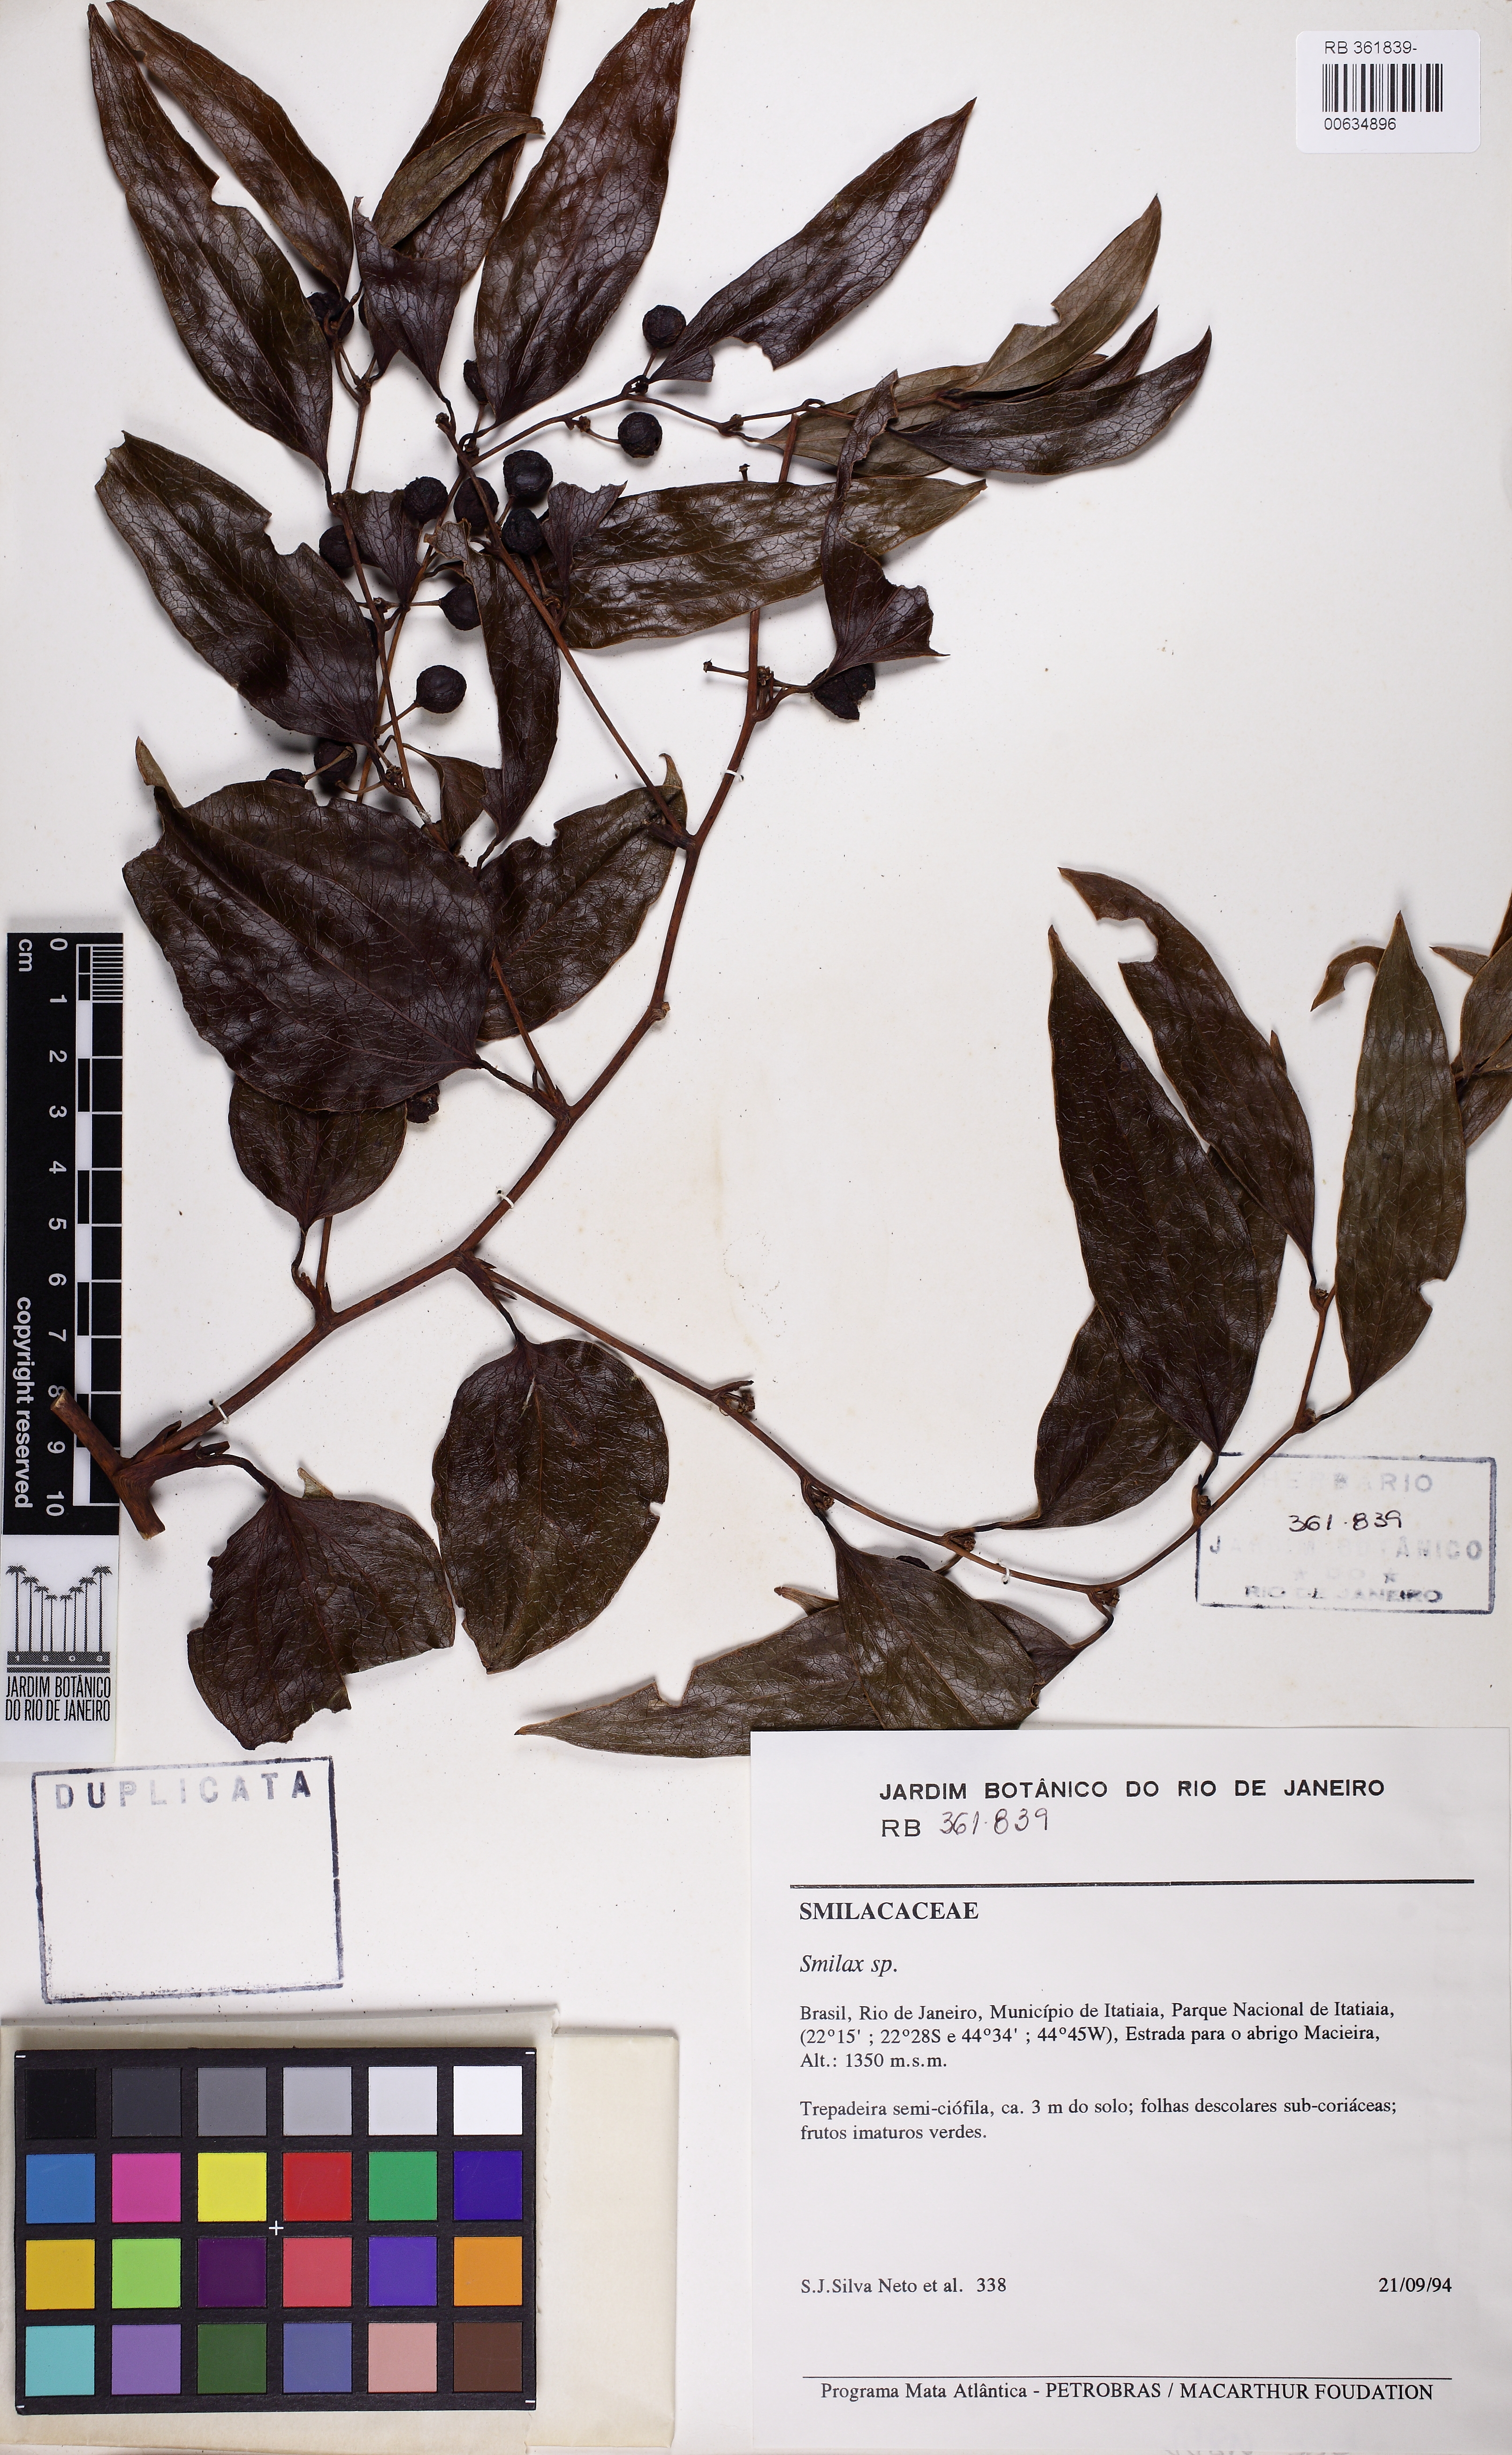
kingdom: Plantae
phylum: Tracheophyta
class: Liliopsida
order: Liliales
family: Smilacaceae
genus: Smilax
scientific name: Smilax
